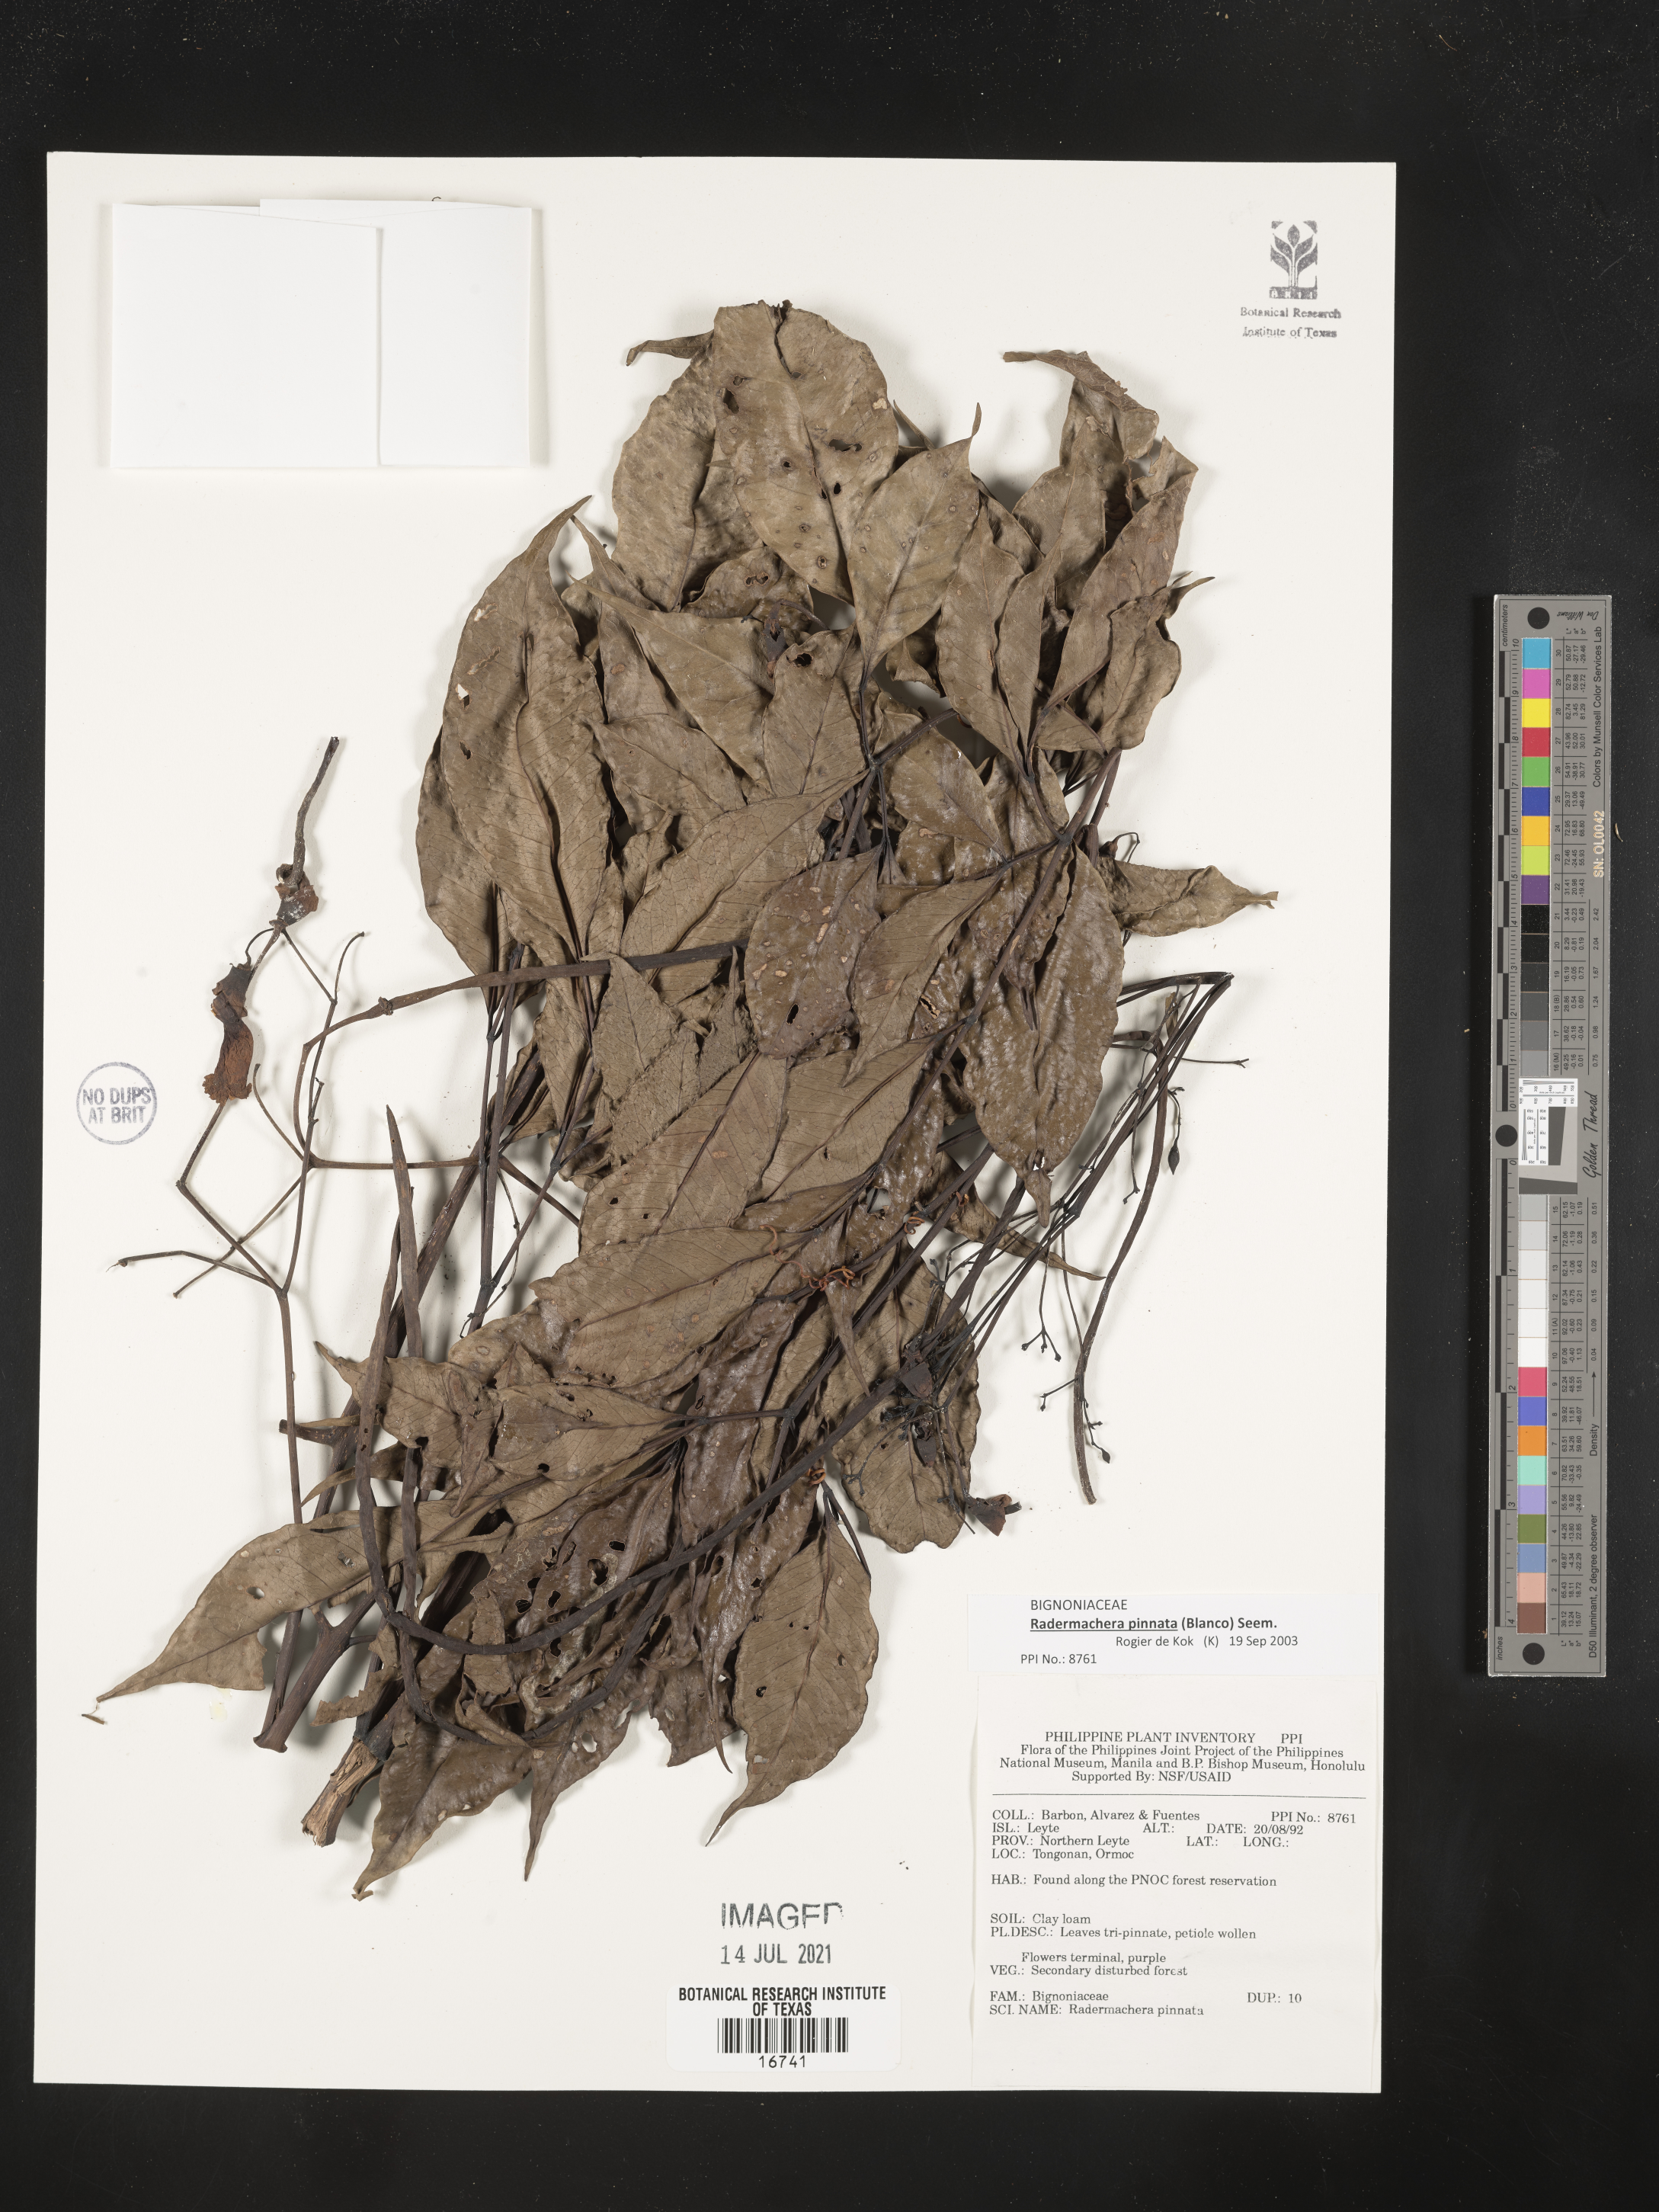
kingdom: Plantae
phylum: Tracheophyta
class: Magnoliopsida
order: Lamiales
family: Bignoniaceae
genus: Radermachera
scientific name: Radermachera pinnata
